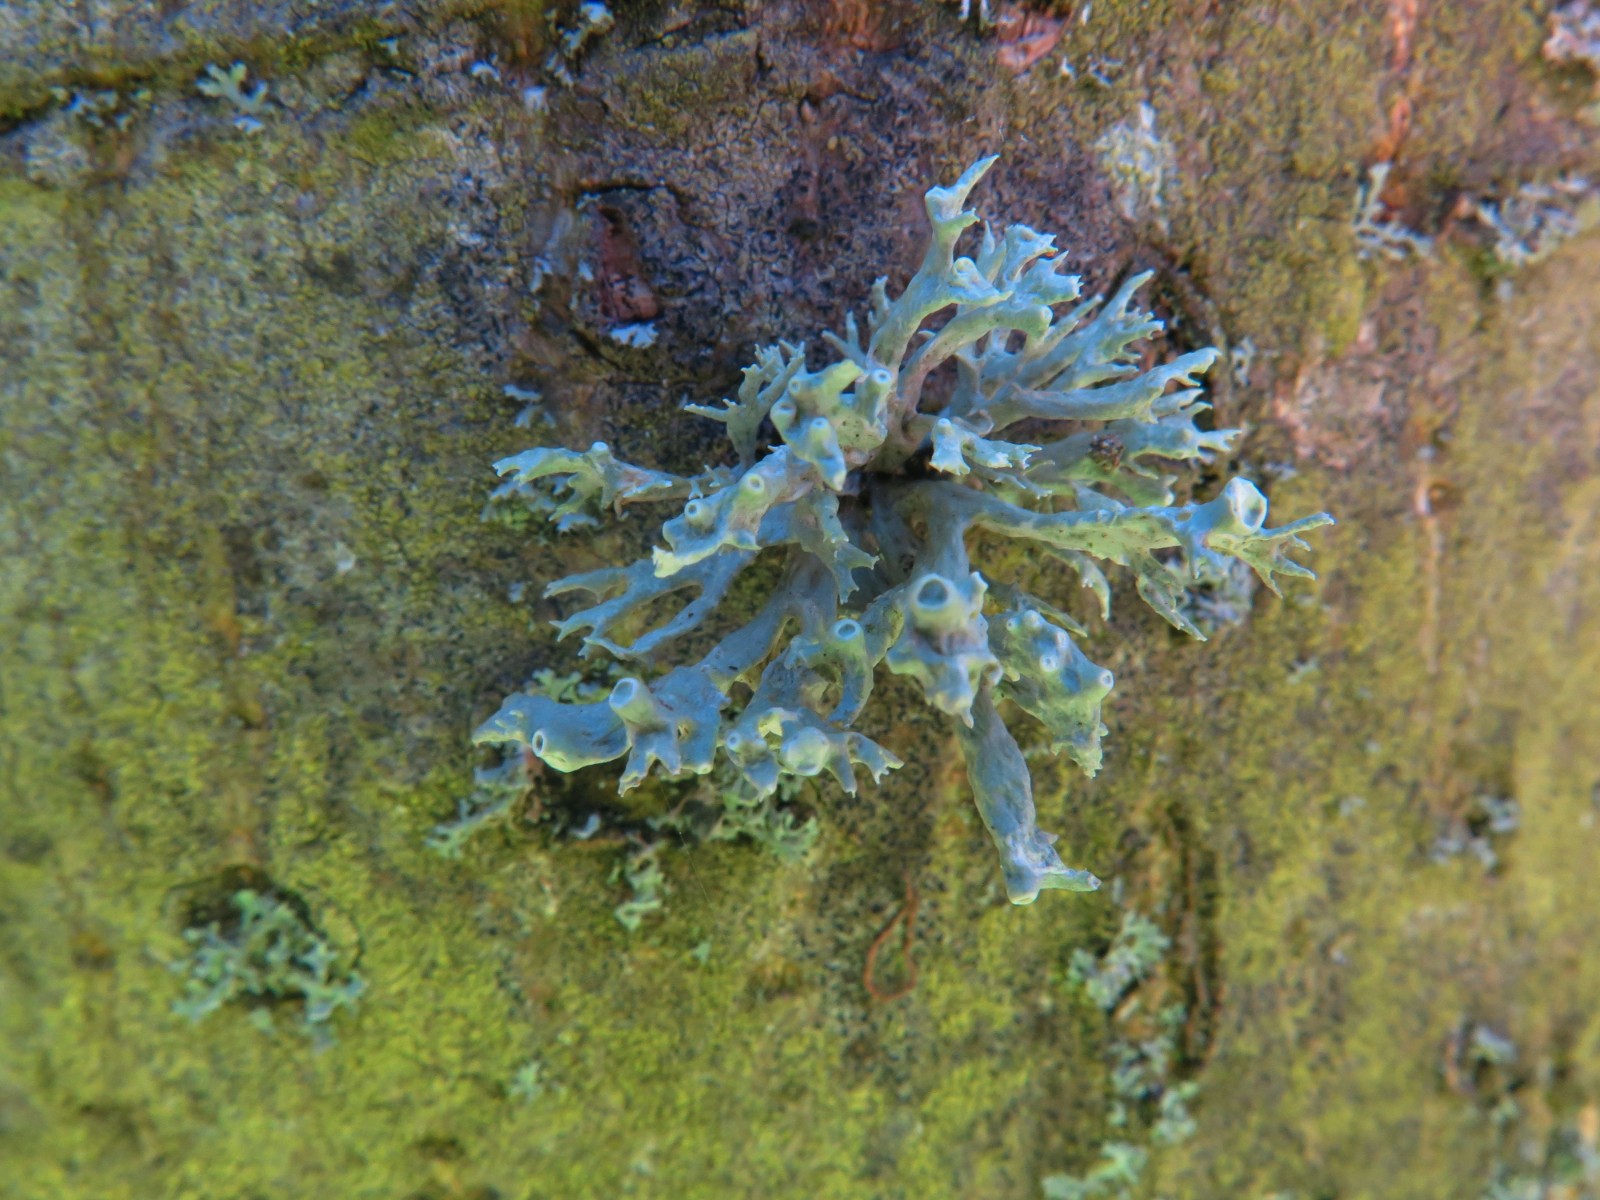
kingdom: Fungi
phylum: Ascomycota
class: Lecanoromycetes
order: Lecanorales
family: Ramalinaceae
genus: Ramalina
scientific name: Ramalina fastigiata
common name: tue-grenlav
